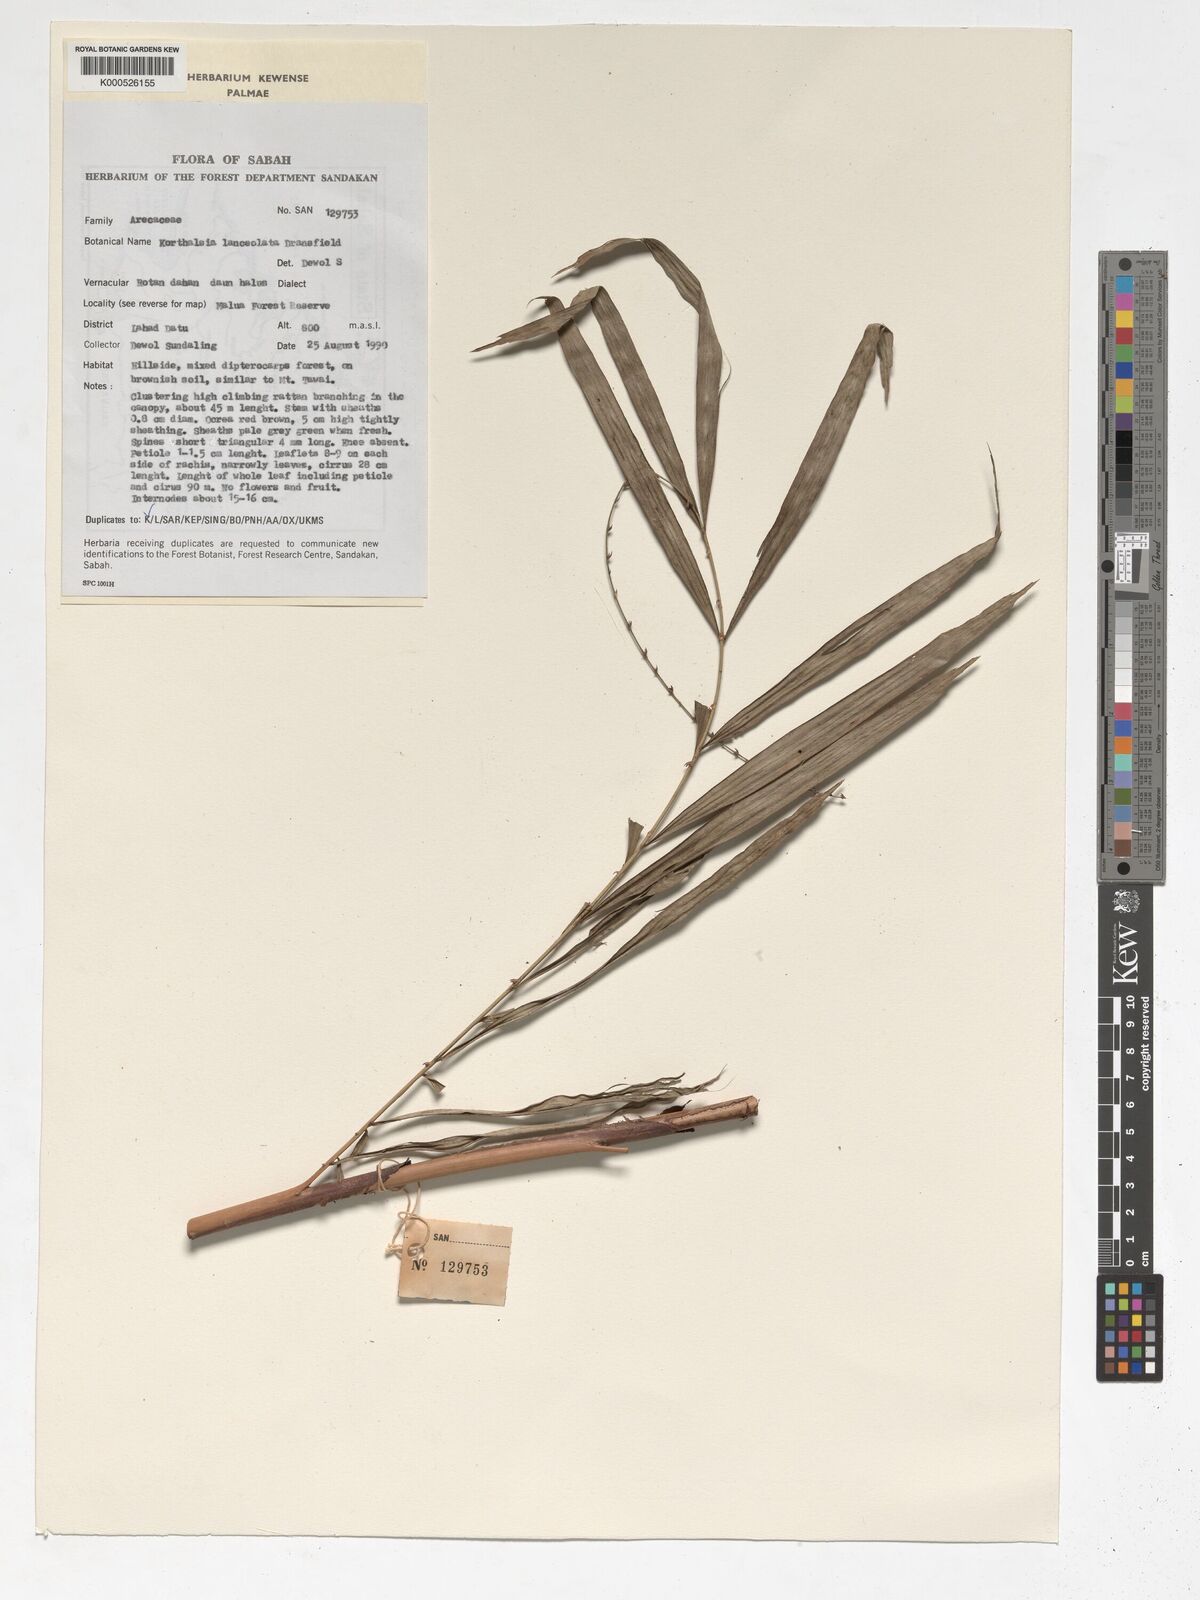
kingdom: Plantae
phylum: Tracheophyta
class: Liliopsida
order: Arecales
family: Arecaceae
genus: Korthalsia
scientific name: Korthalsia lanceolata
